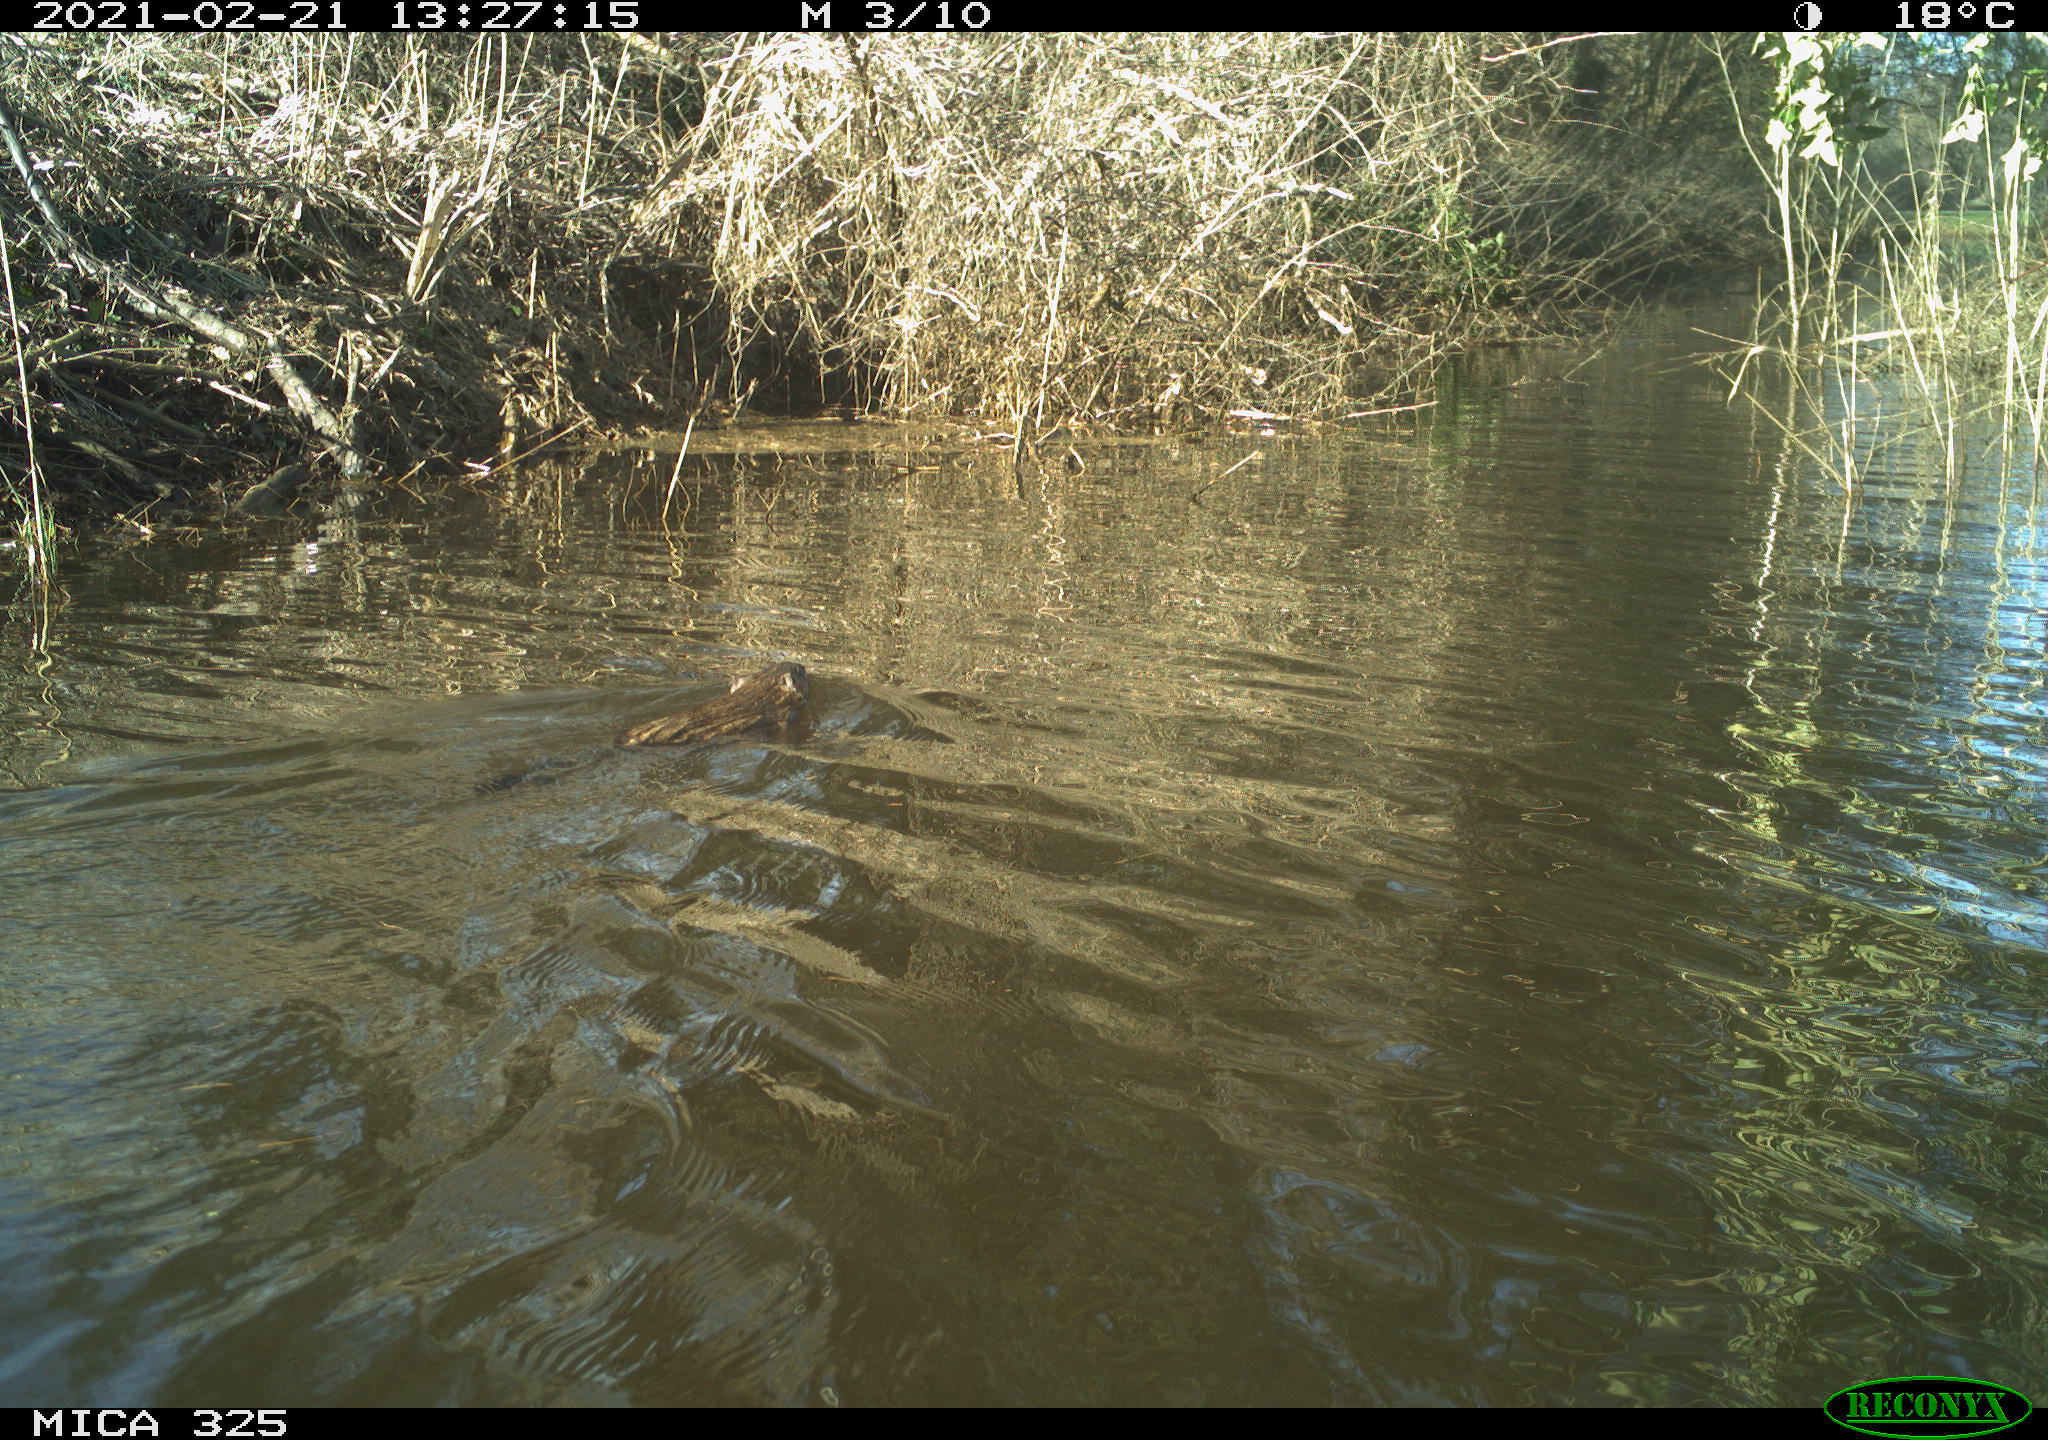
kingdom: Animalia
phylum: Chordata
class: Mammalia
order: Rodentia
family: Cricetidae
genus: Ondatra
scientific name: Ondatra zibethicus
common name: Muskrat
